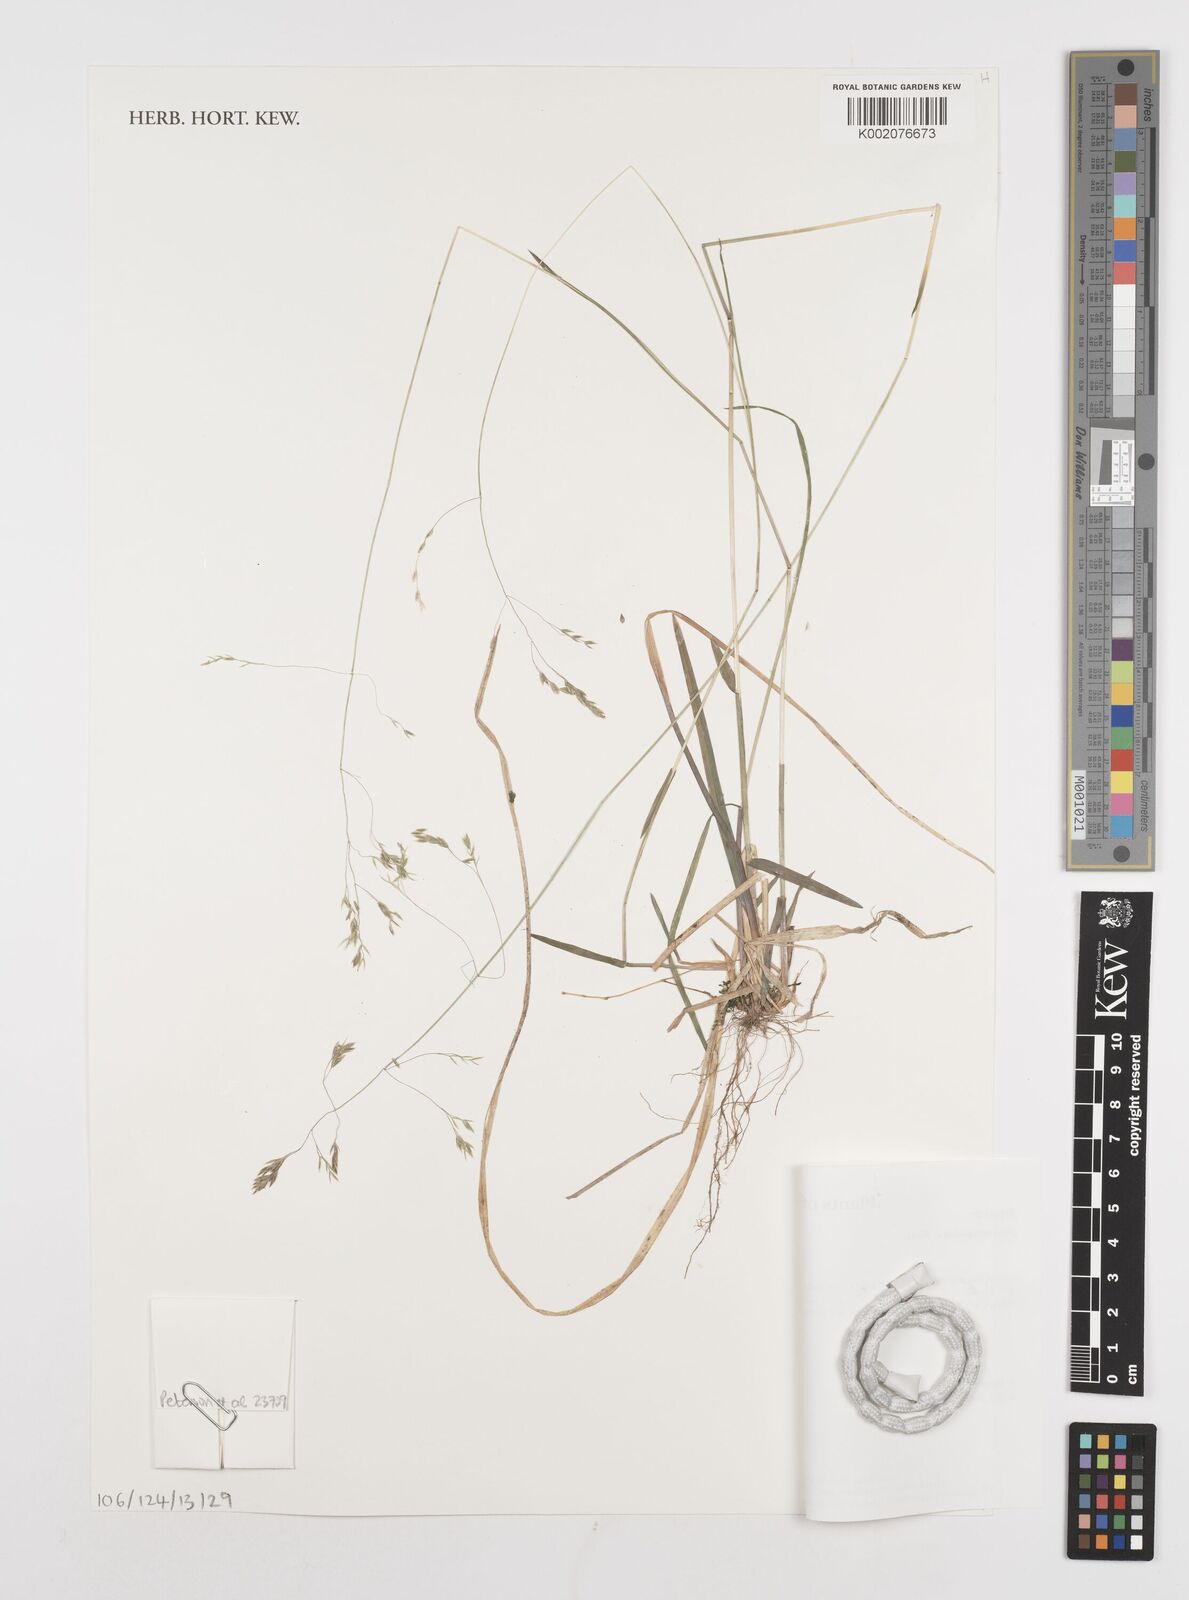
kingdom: Plantae
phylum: Tracheophyta
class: Liliopsida
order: Poales
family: Poaceae
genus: Poa
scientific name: Poa cuspidata
